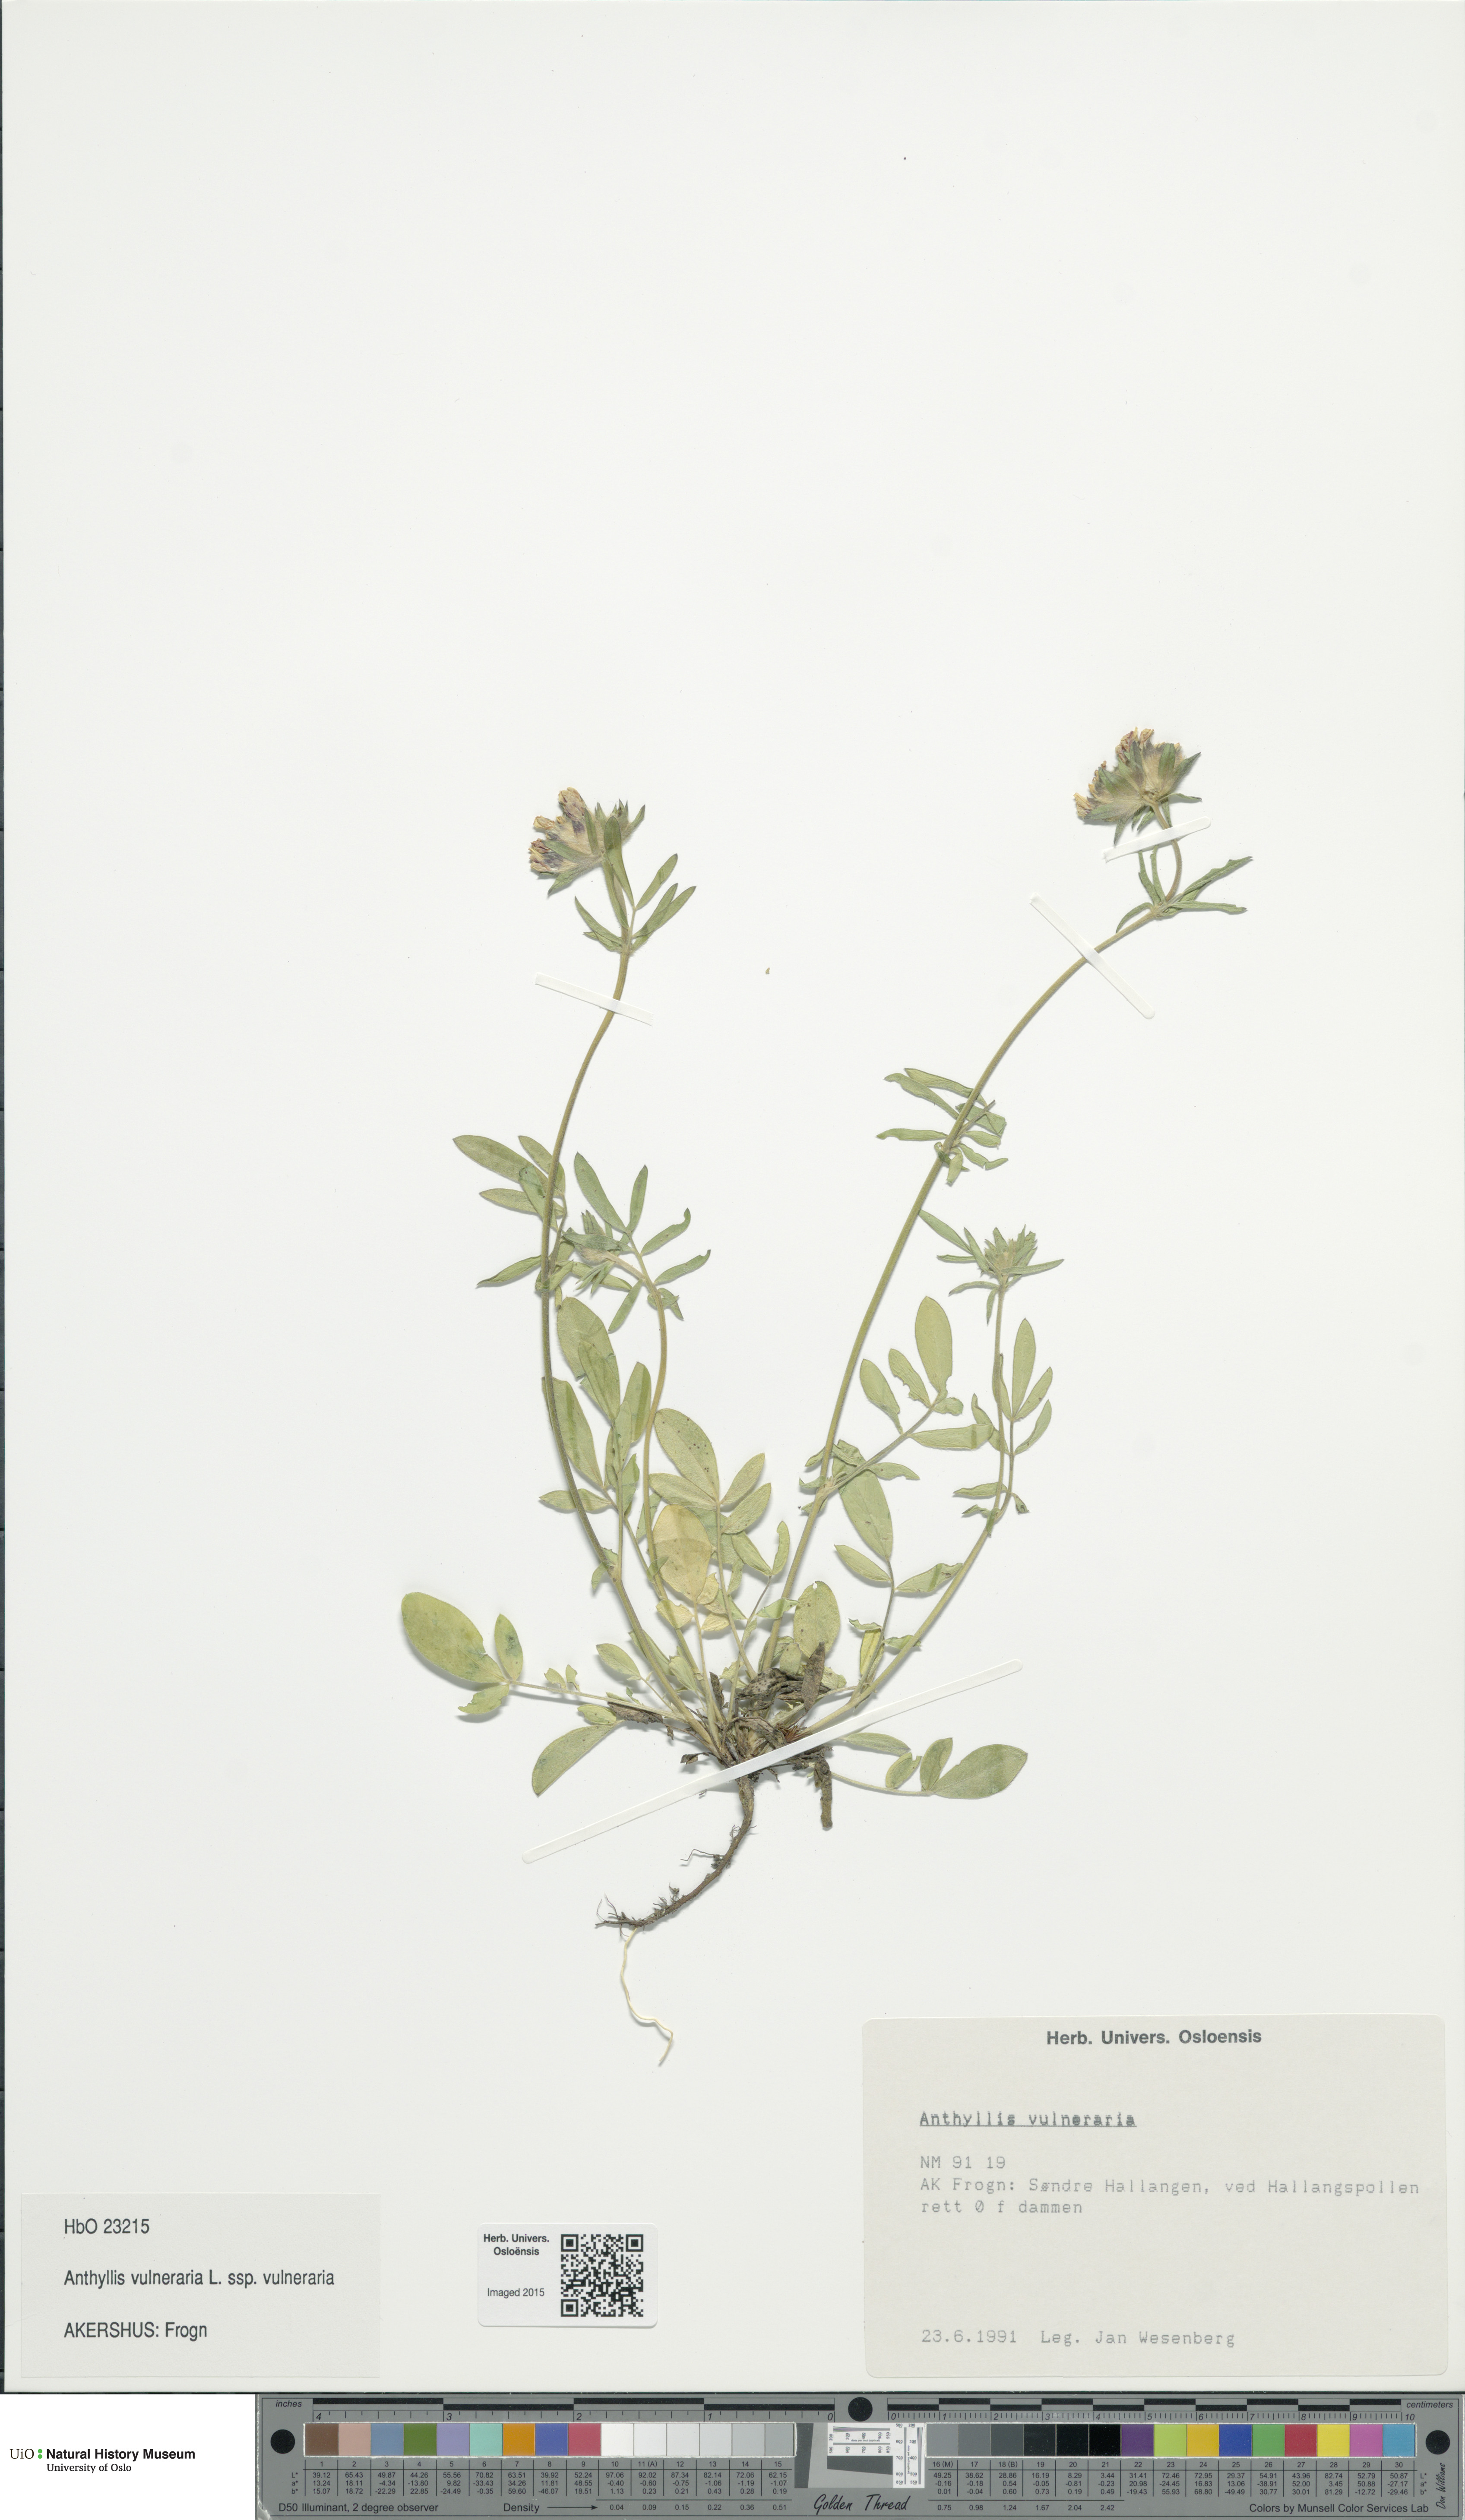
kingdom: Plantae
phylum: Tracheophyta
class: Magnoliopsida
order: Fabales
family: Fabaceae
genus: Anthyllis
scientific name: Anthyllis vulneraria
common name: Kidney vetch
